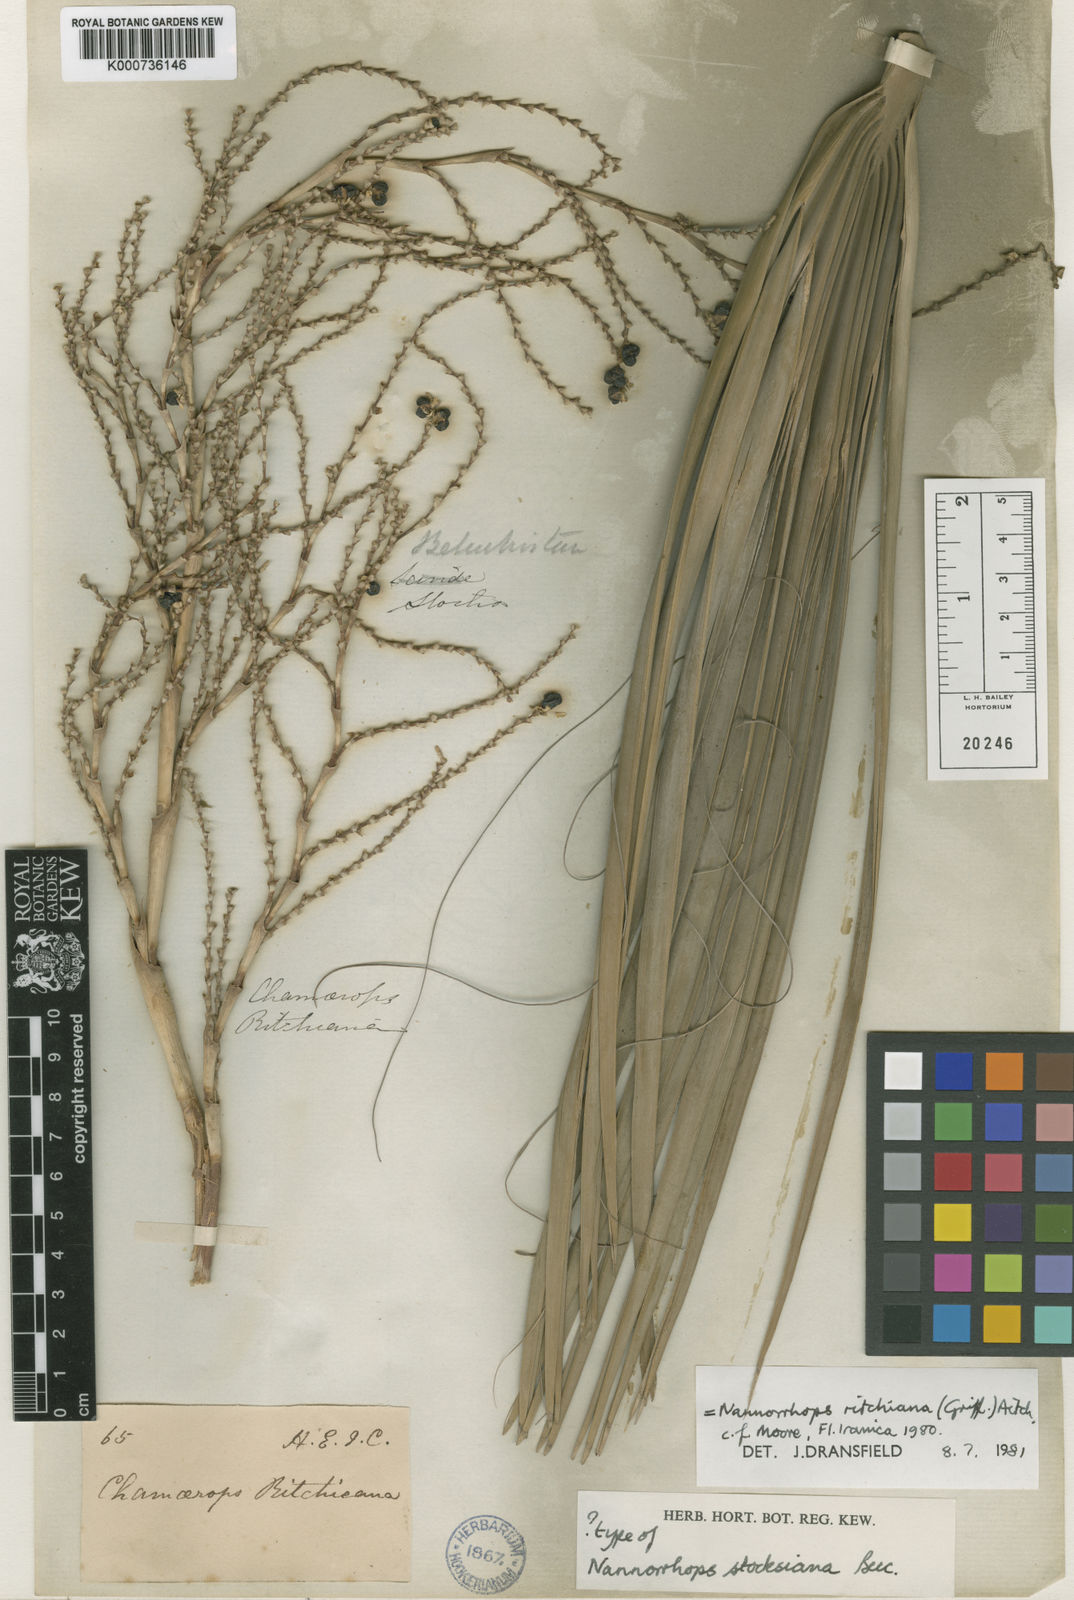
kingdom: Plantae
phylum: Tracheophyta
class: Liliopsida
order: Arecales
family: Arecaceae
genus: Nannorrhops
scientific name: Nannorrhops
